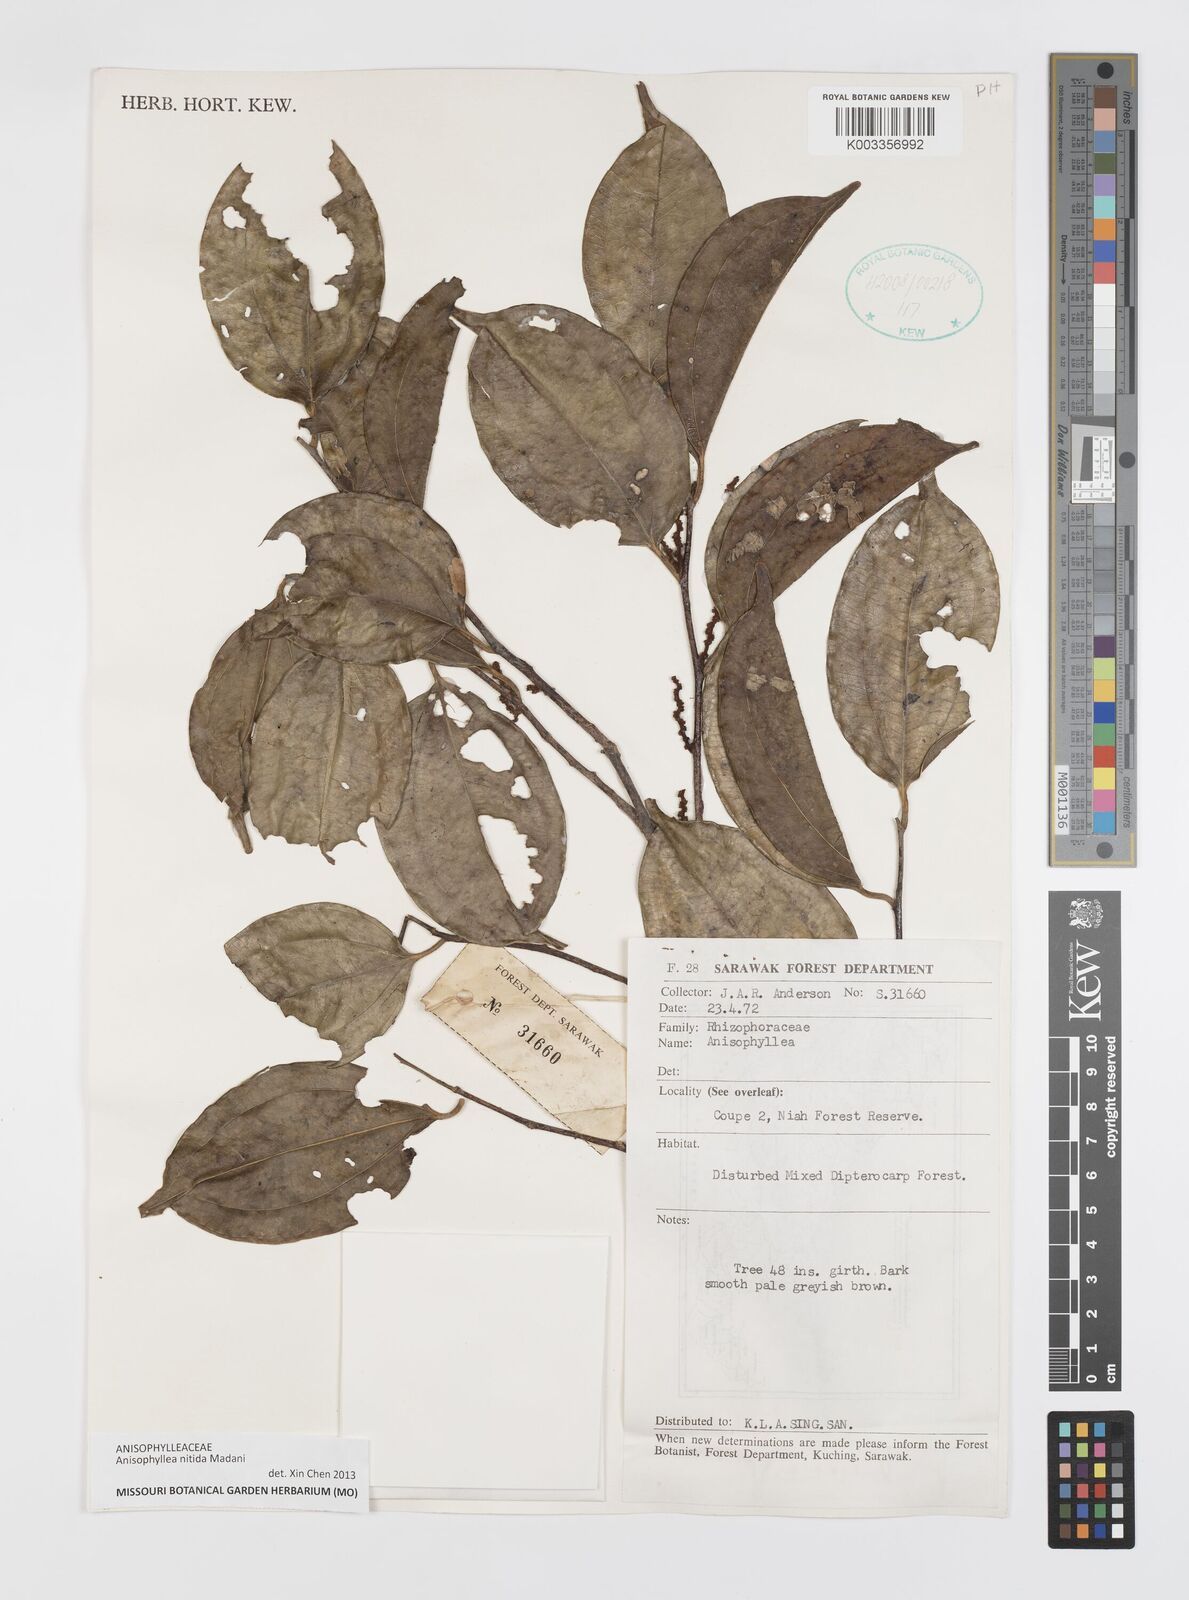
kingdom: Plantae
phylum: Tracheophyta
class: Magnoliopsida
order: Cucurbitales
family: Anisophylleaceae
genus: Anisophyllea
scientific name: Anisophyllea nitida
